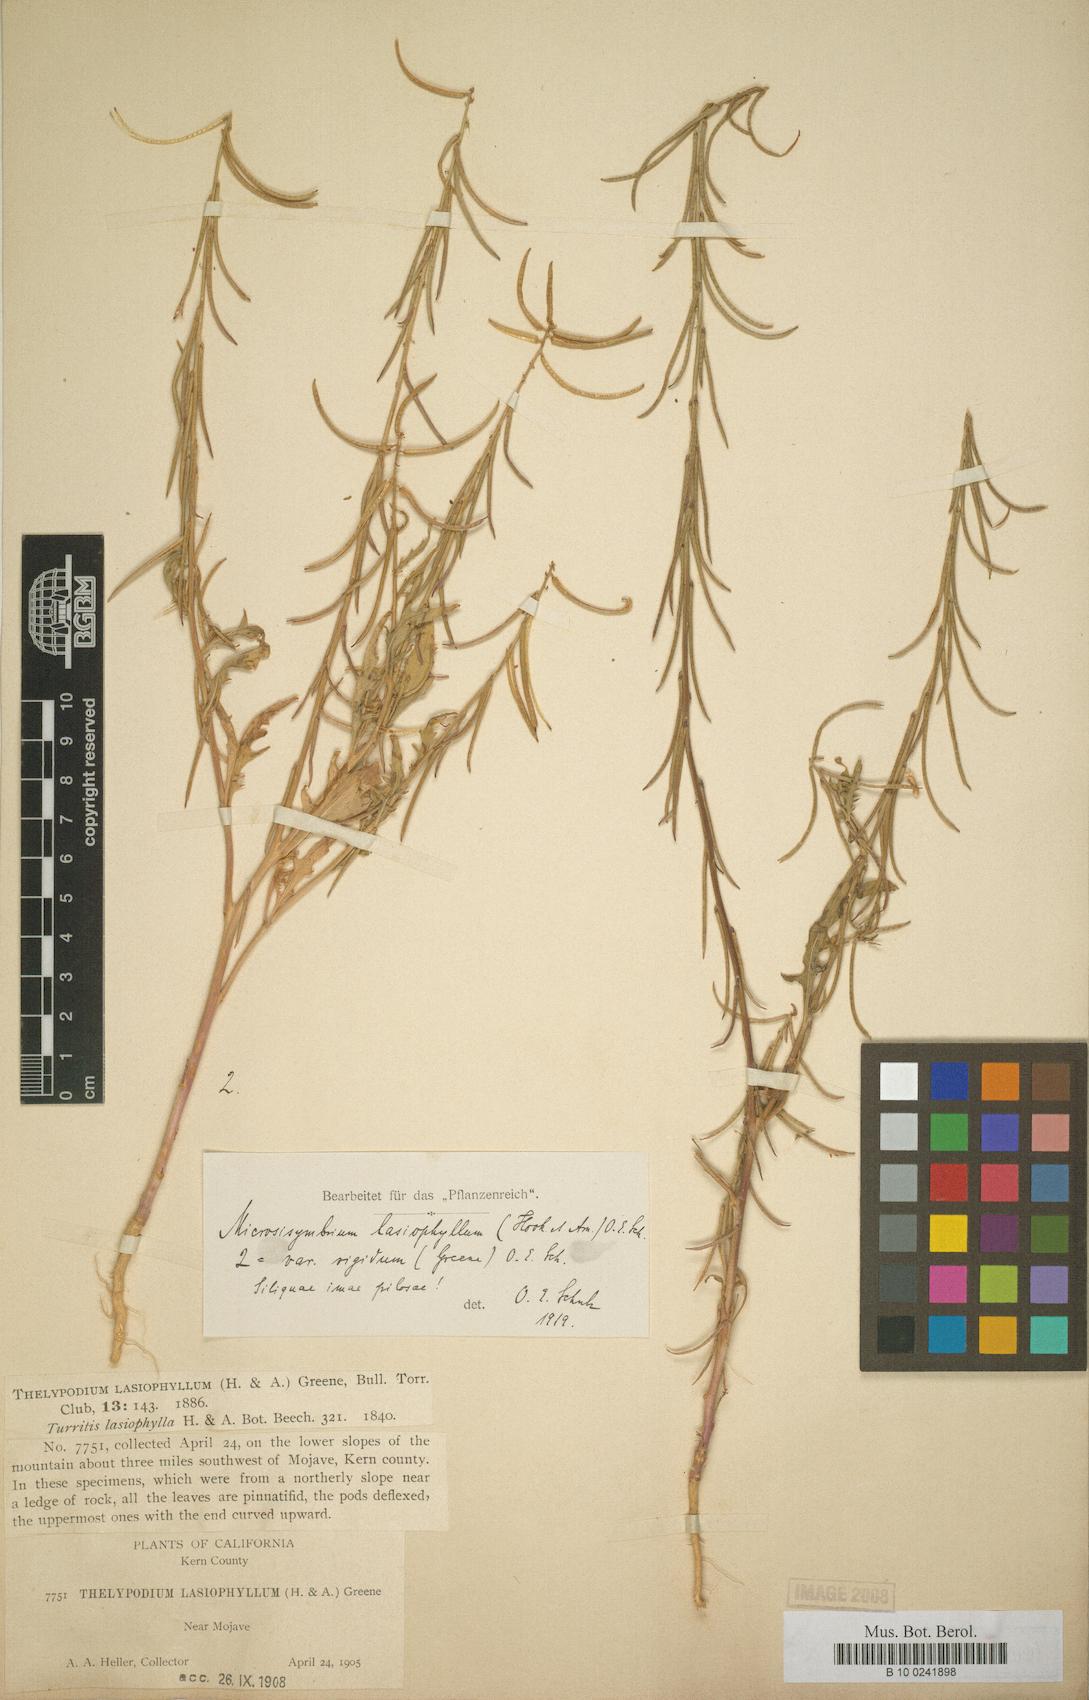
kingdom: Plantae
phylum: Tracheophyta
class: Magnoliopsida
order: Brassicales
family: Brassicaceae
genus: Streptanthus
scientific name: Streptanthus lasiophyllus
